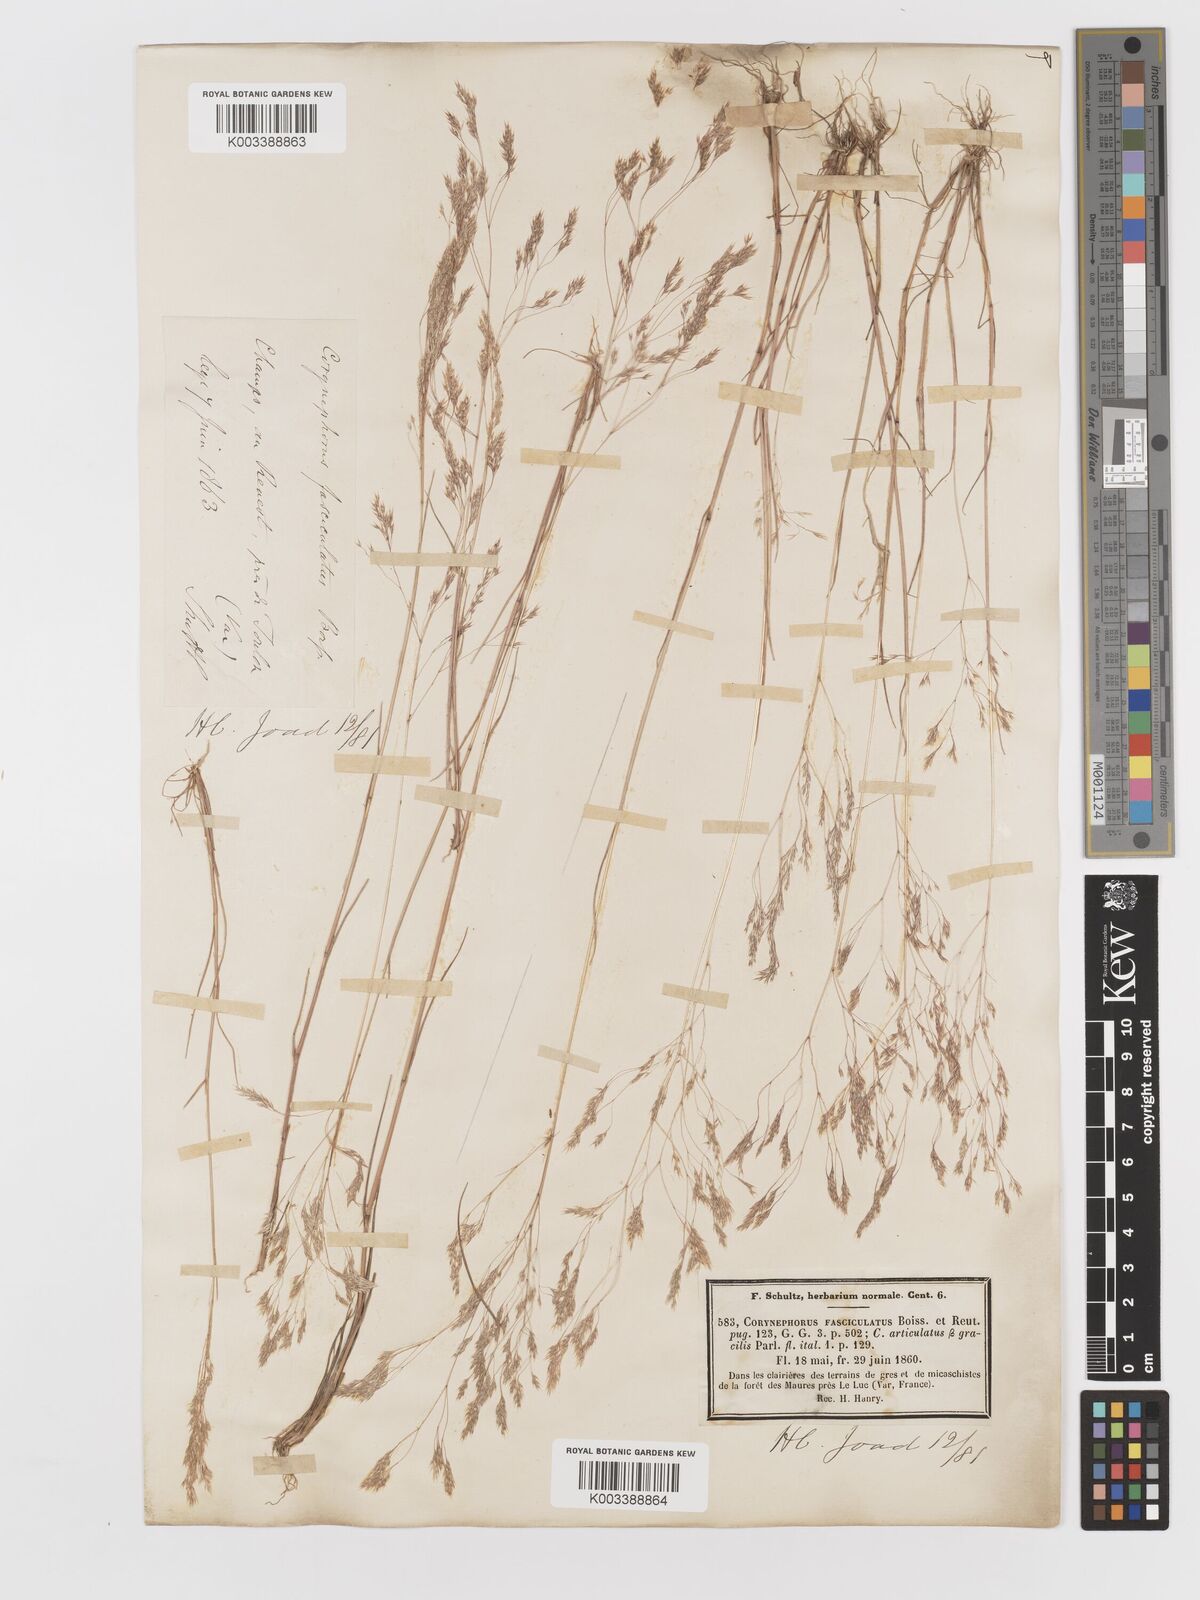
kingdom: Plantae
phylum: Tracheophyta
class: Liliopsida
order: Poales
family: Poaceae
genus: Corynephorus
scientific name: Corynephorus fasciculatus
